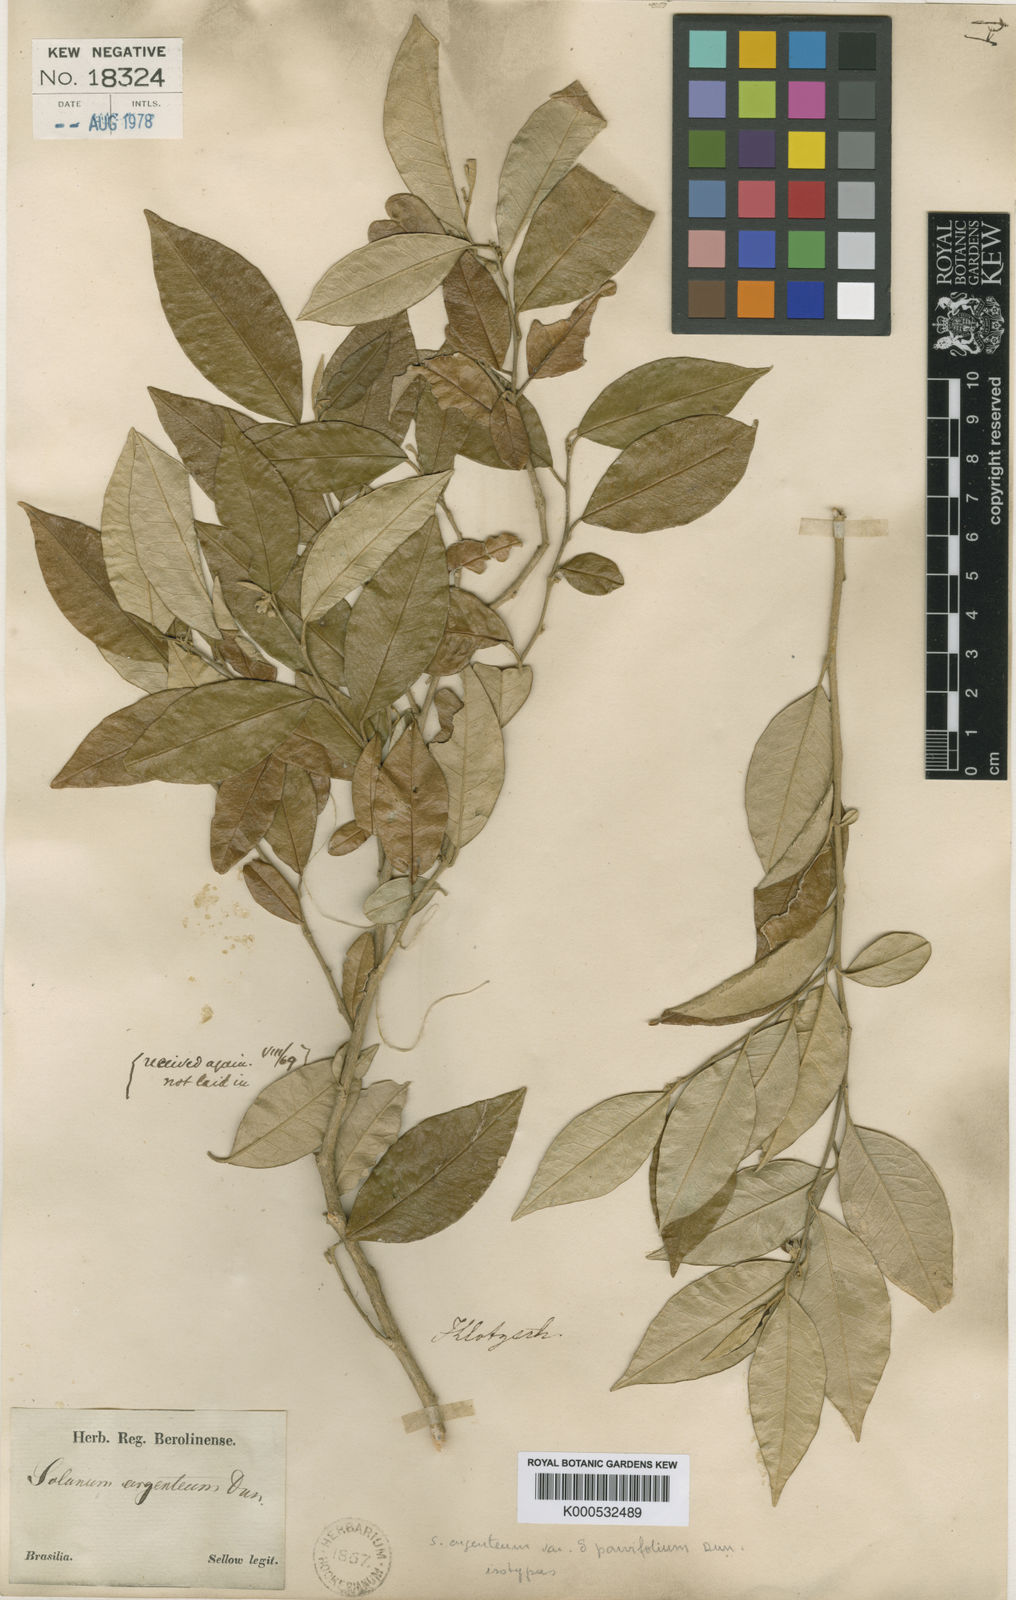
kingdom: Plantae
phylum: Tracheophyta
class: Magnoliopsida
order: Solanales
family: Solanaceae
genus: Solanum
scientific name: Solanum argenteum
